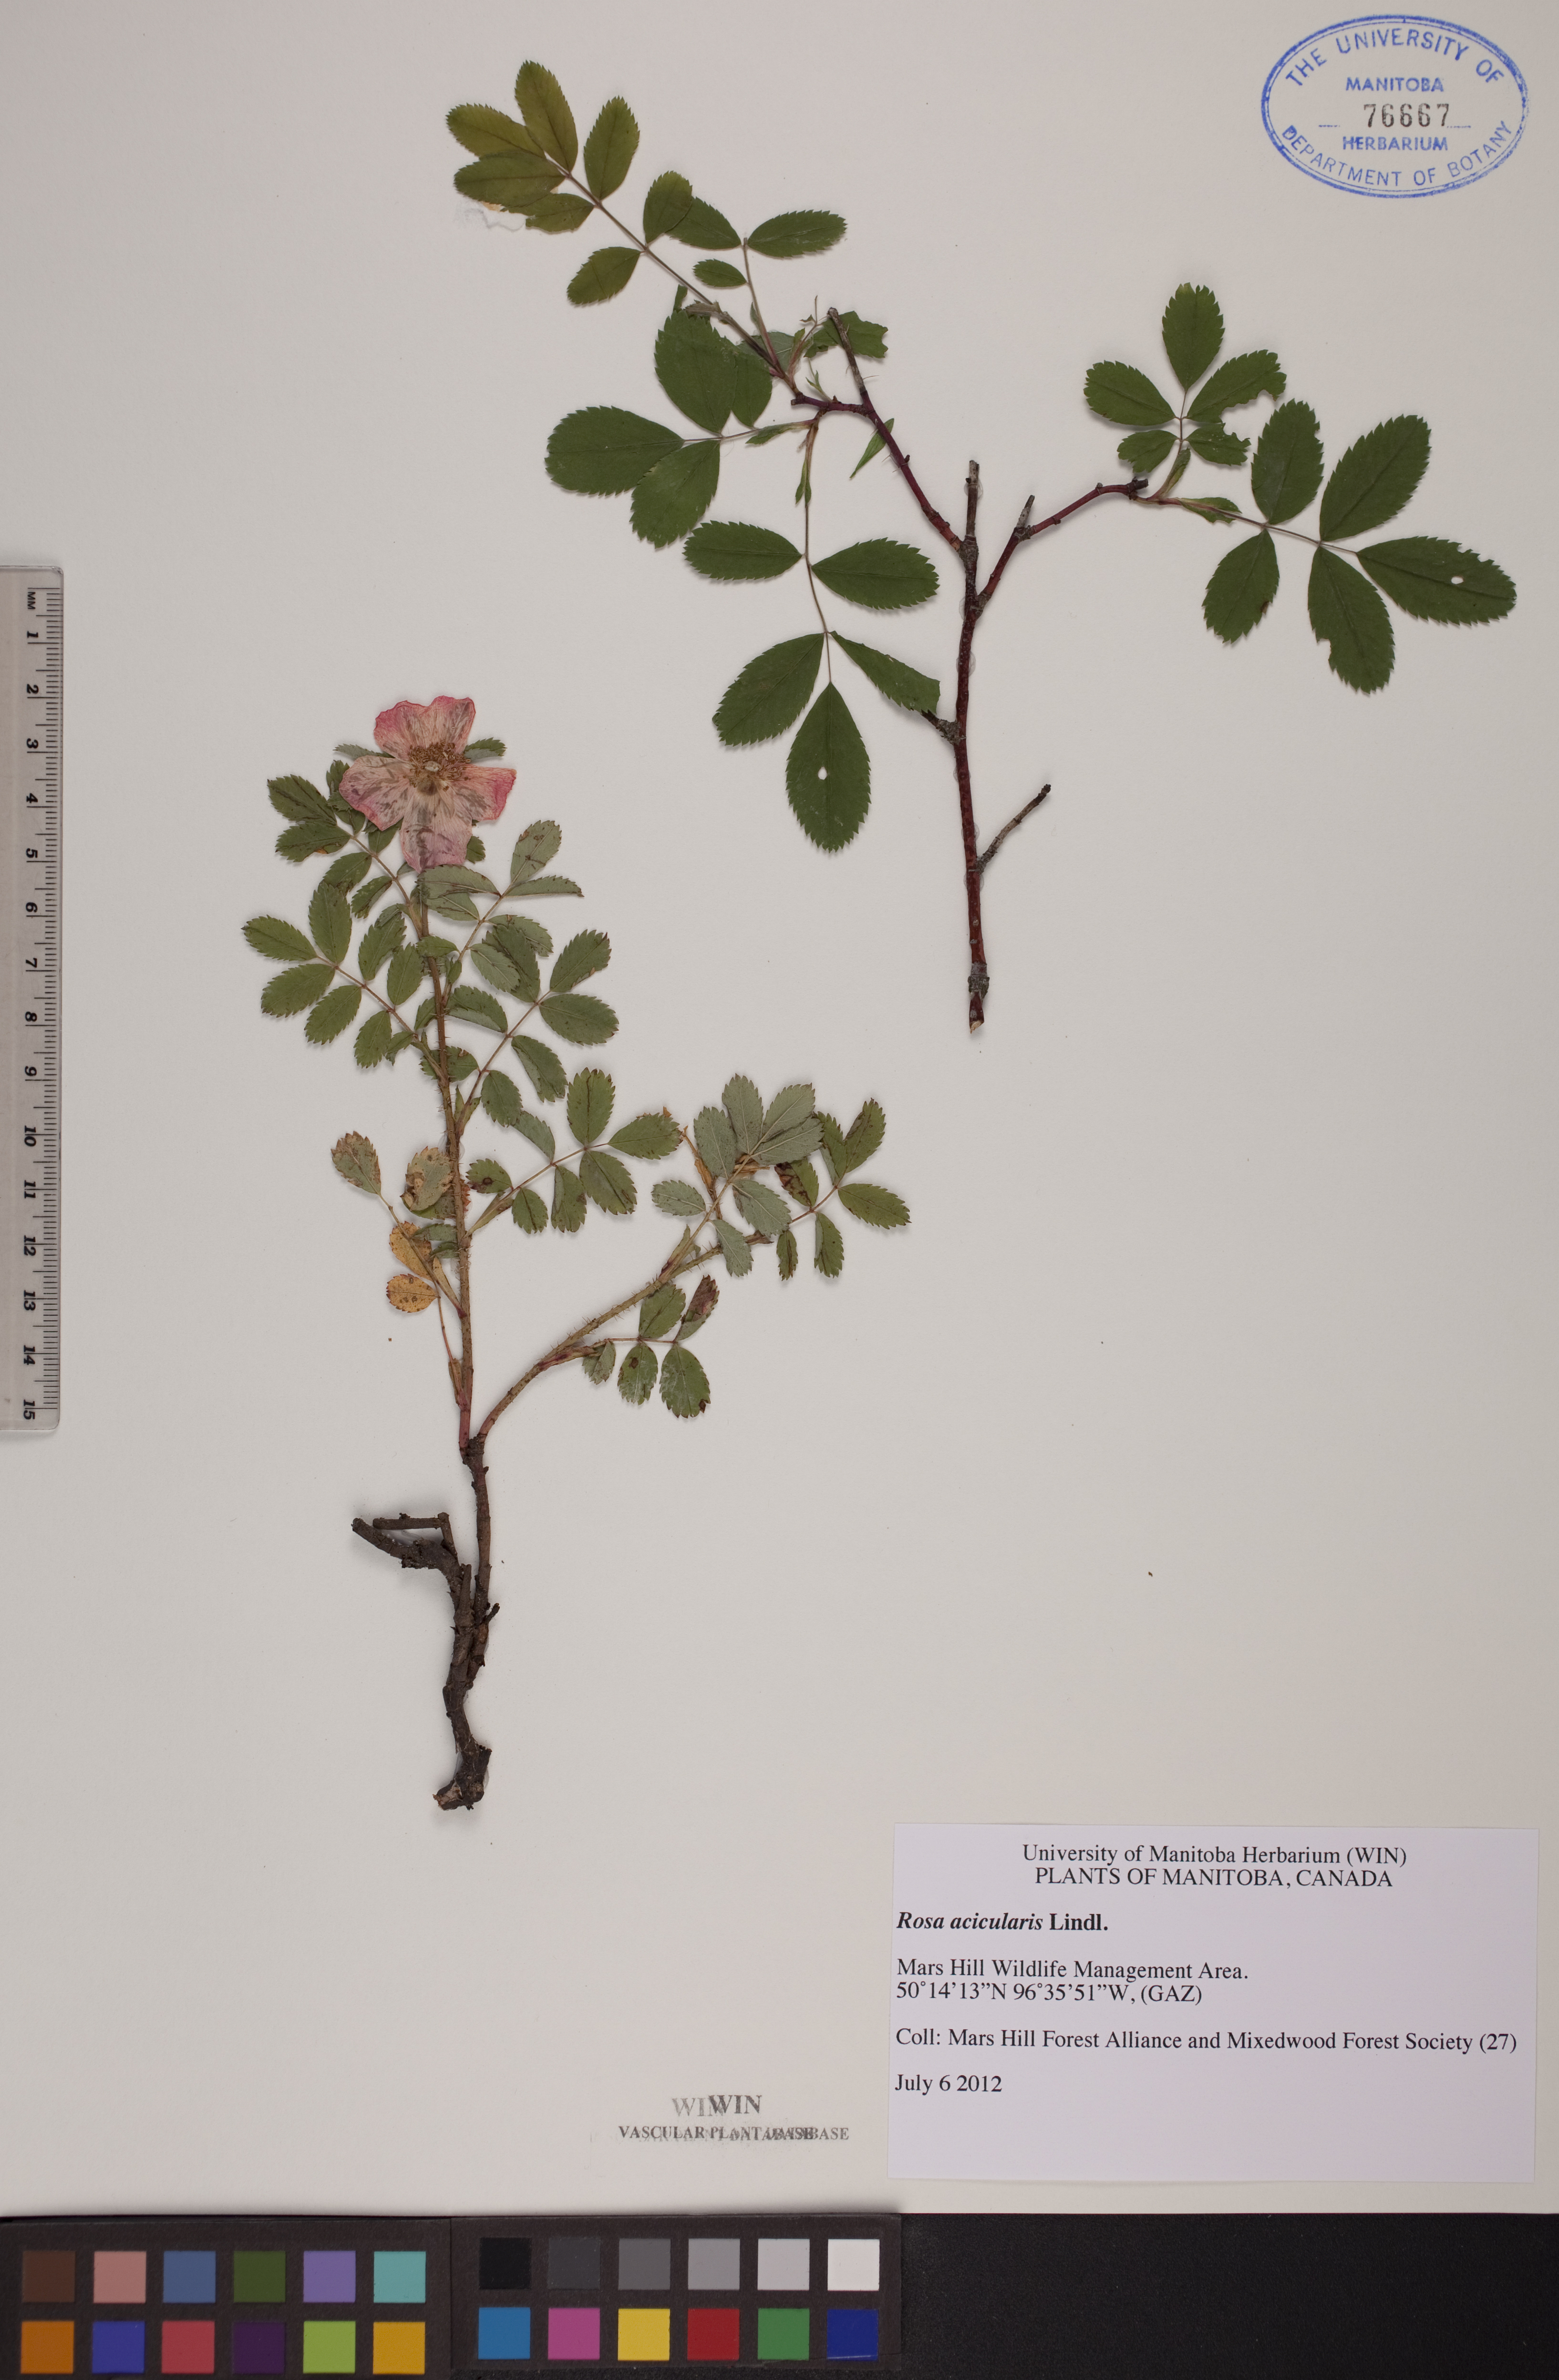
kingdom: Plantae
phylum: Tracheophyta
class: Magnoliopsida
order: Rosales
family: Rosaceae
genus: Rosa
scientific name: Rosa acicularis
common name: Prickly rose
